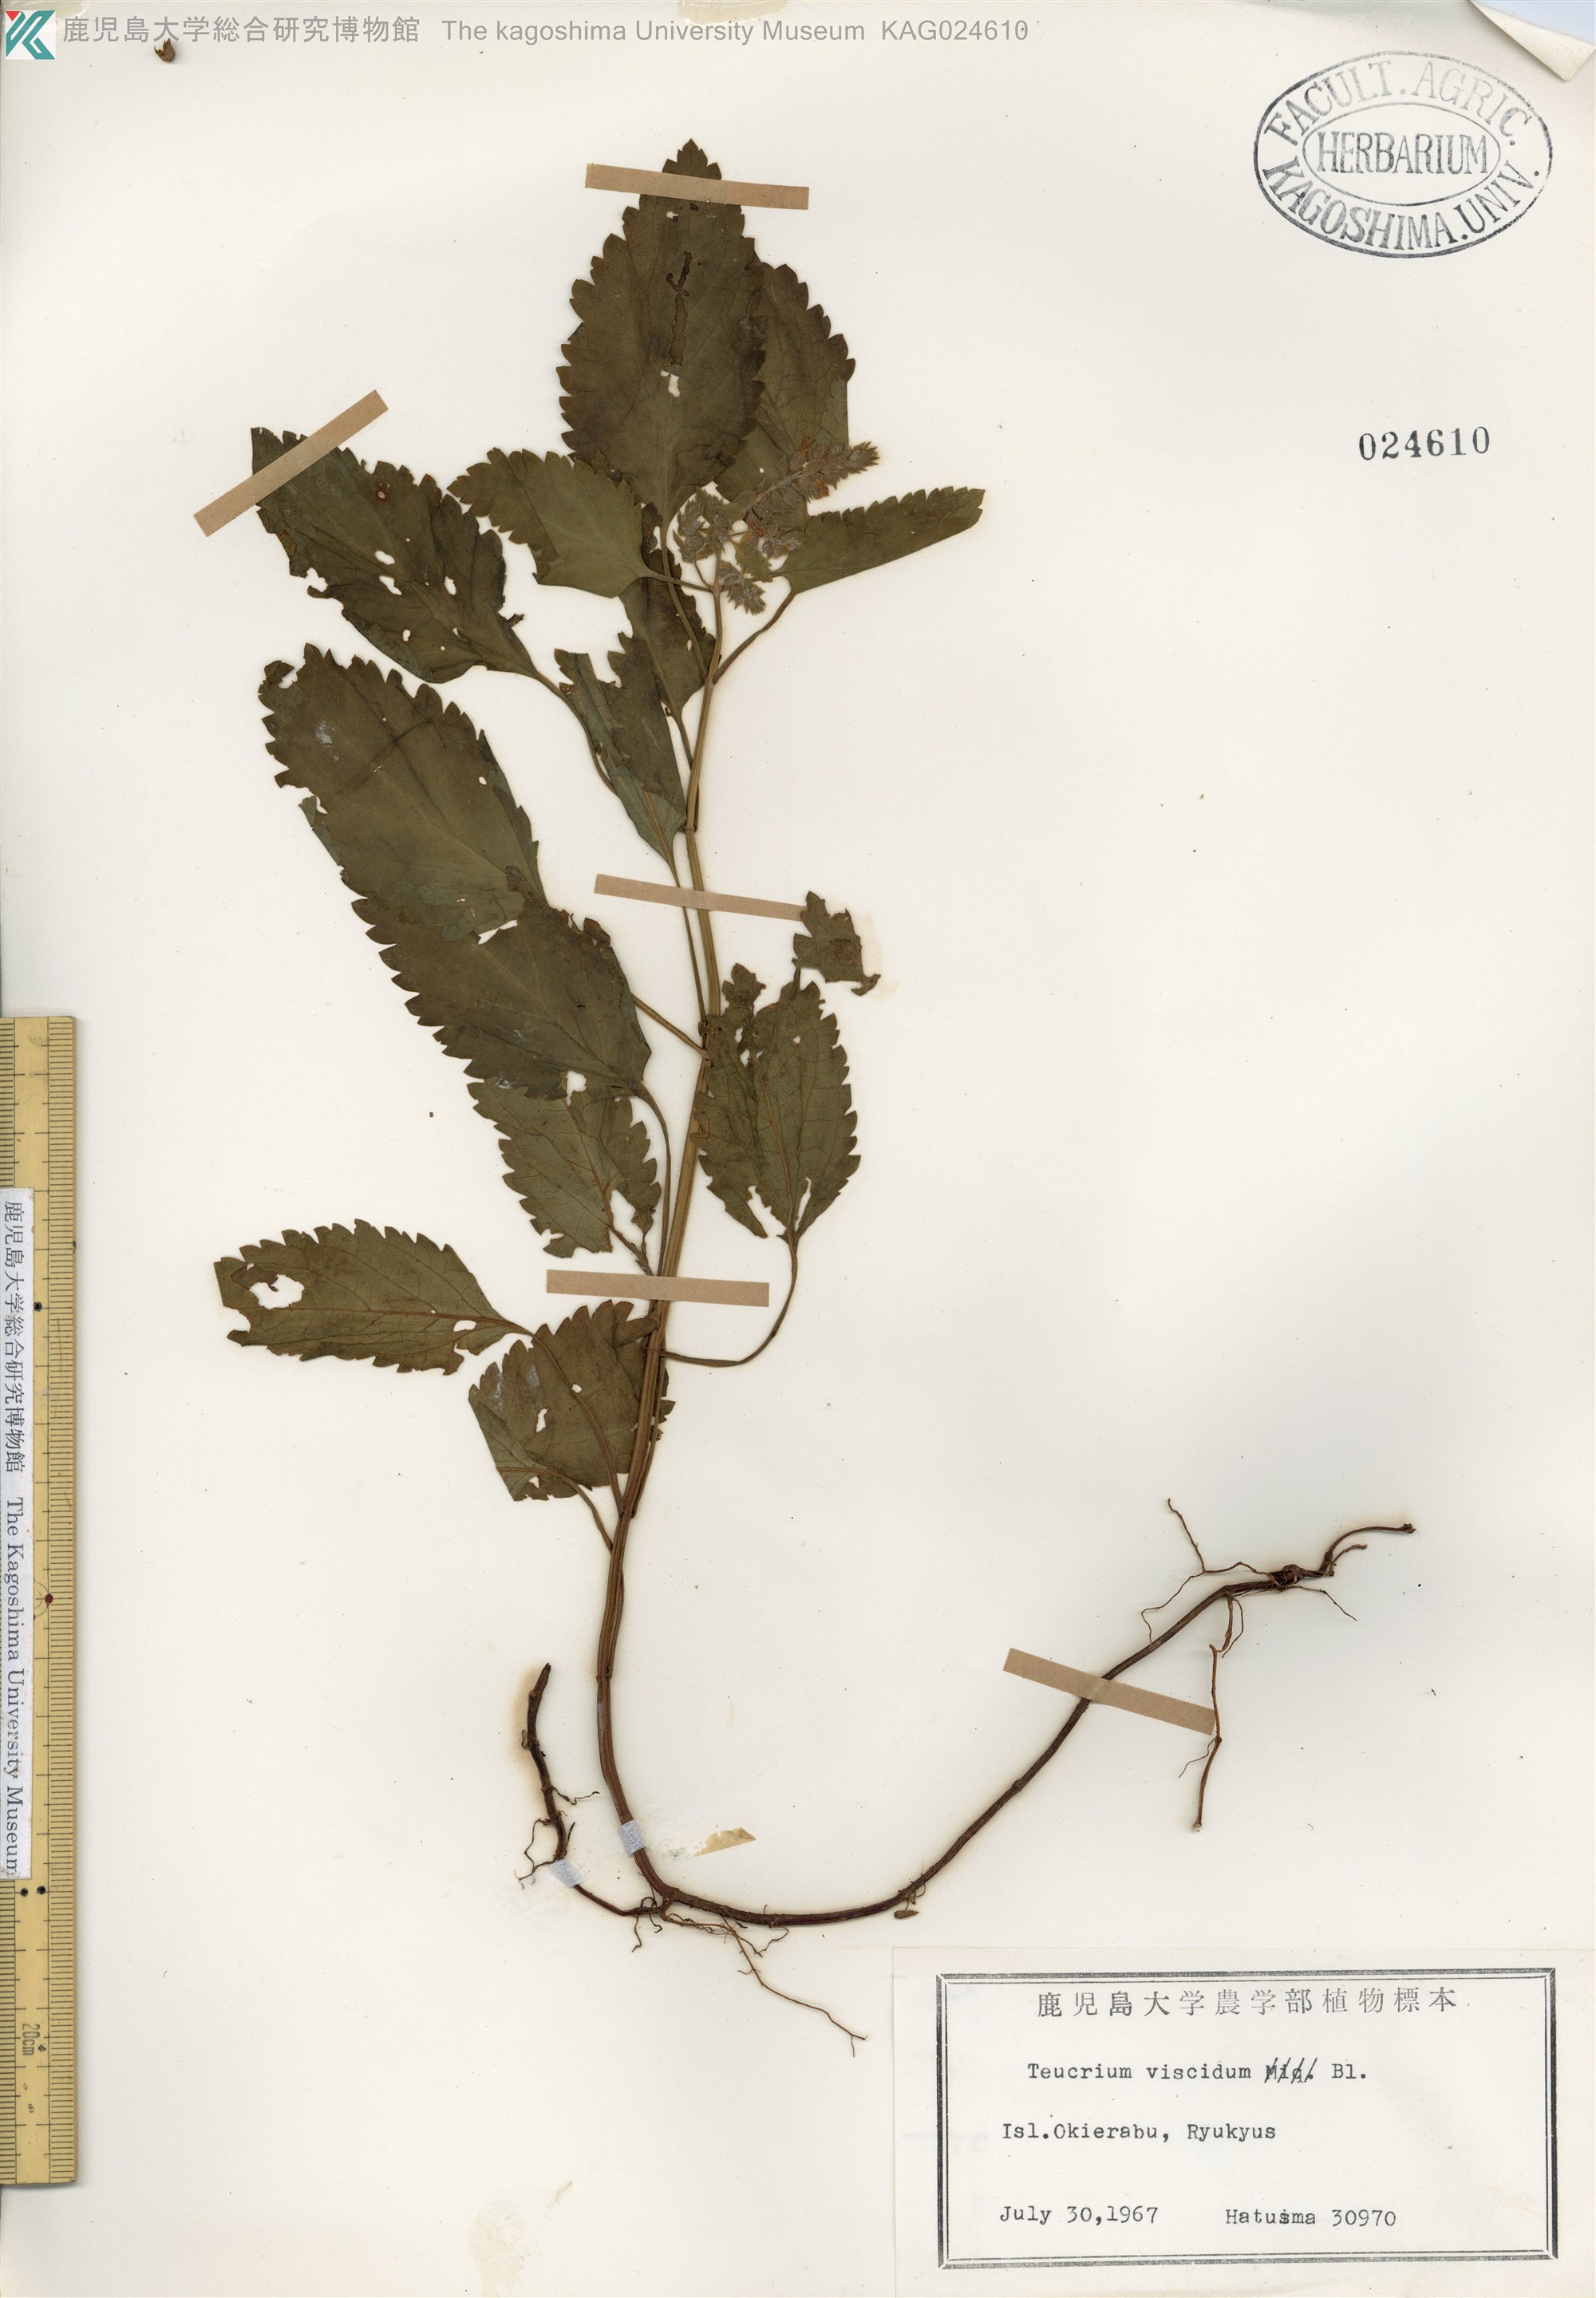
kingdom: Plantae
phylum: Tracheophyta
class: Magnoliopsida
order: Lamiales
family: Lamiaceae
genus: Teucrium
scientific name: Teucrium viscidum
